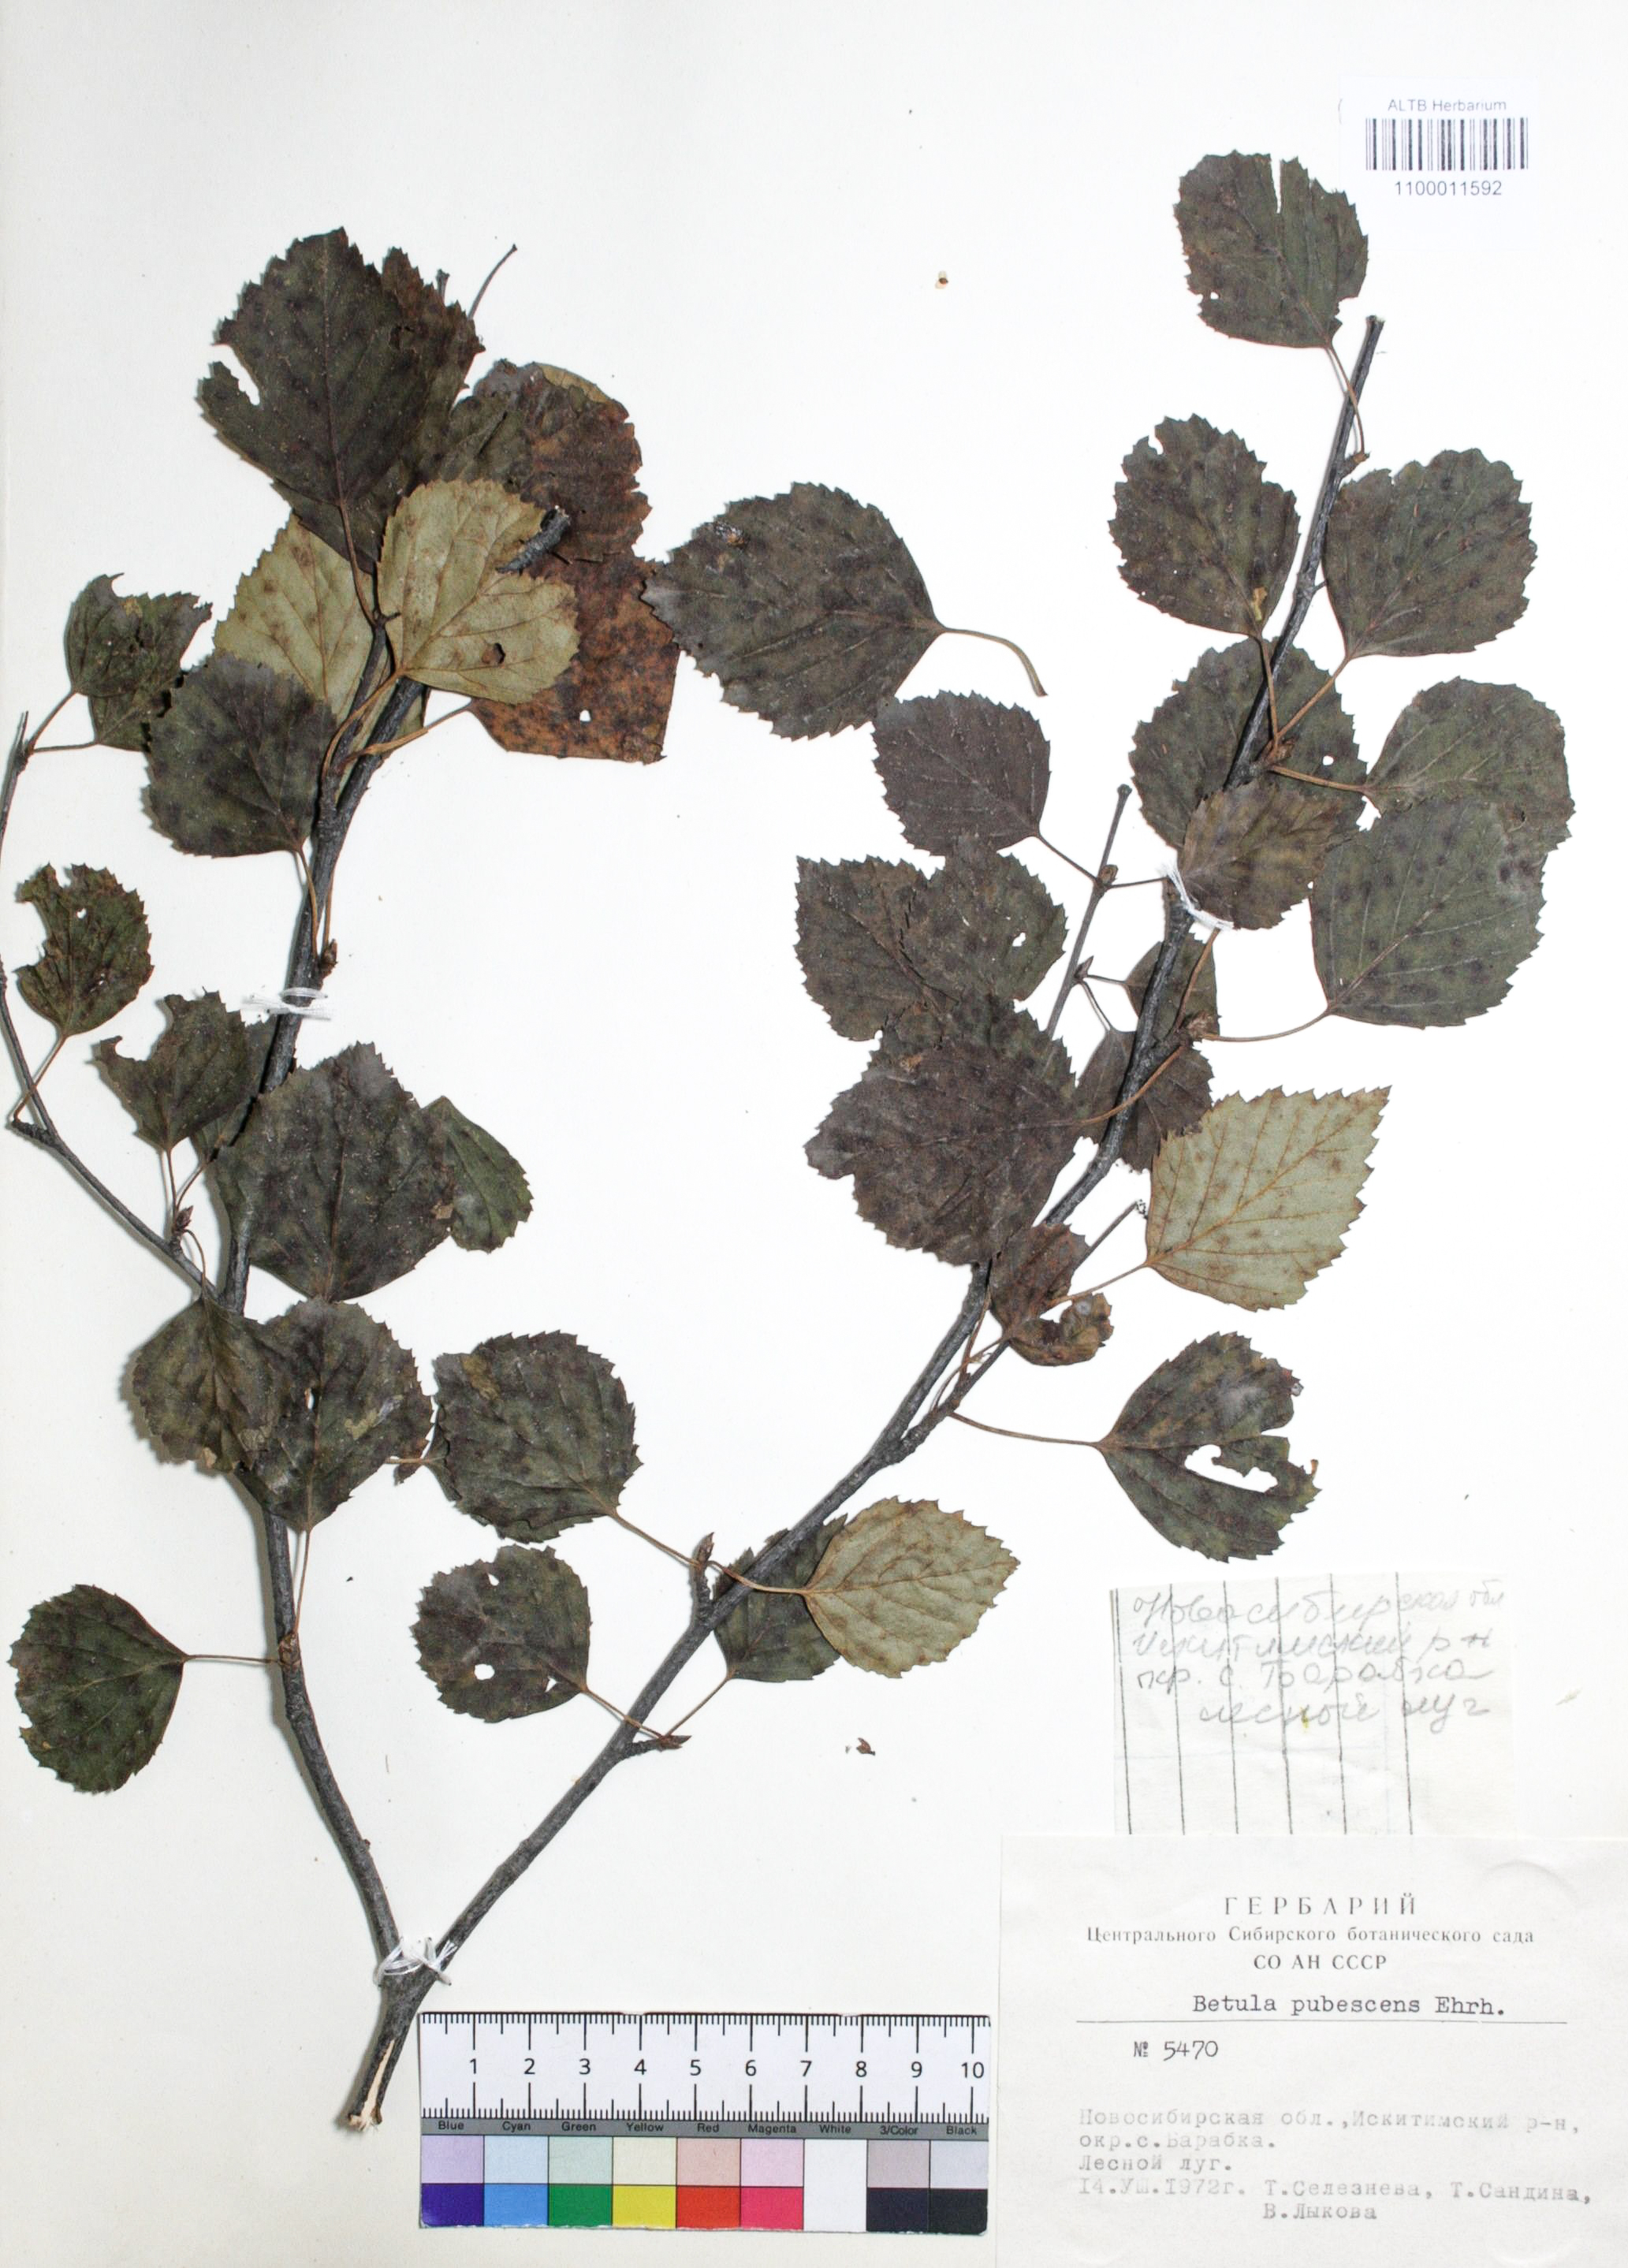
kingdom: Plantae
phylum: Tracheophyta
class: Magnoliopsida
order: Fagales
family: Betulaceae
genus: Betula
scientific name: Betula pubescens
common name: Downy birch
